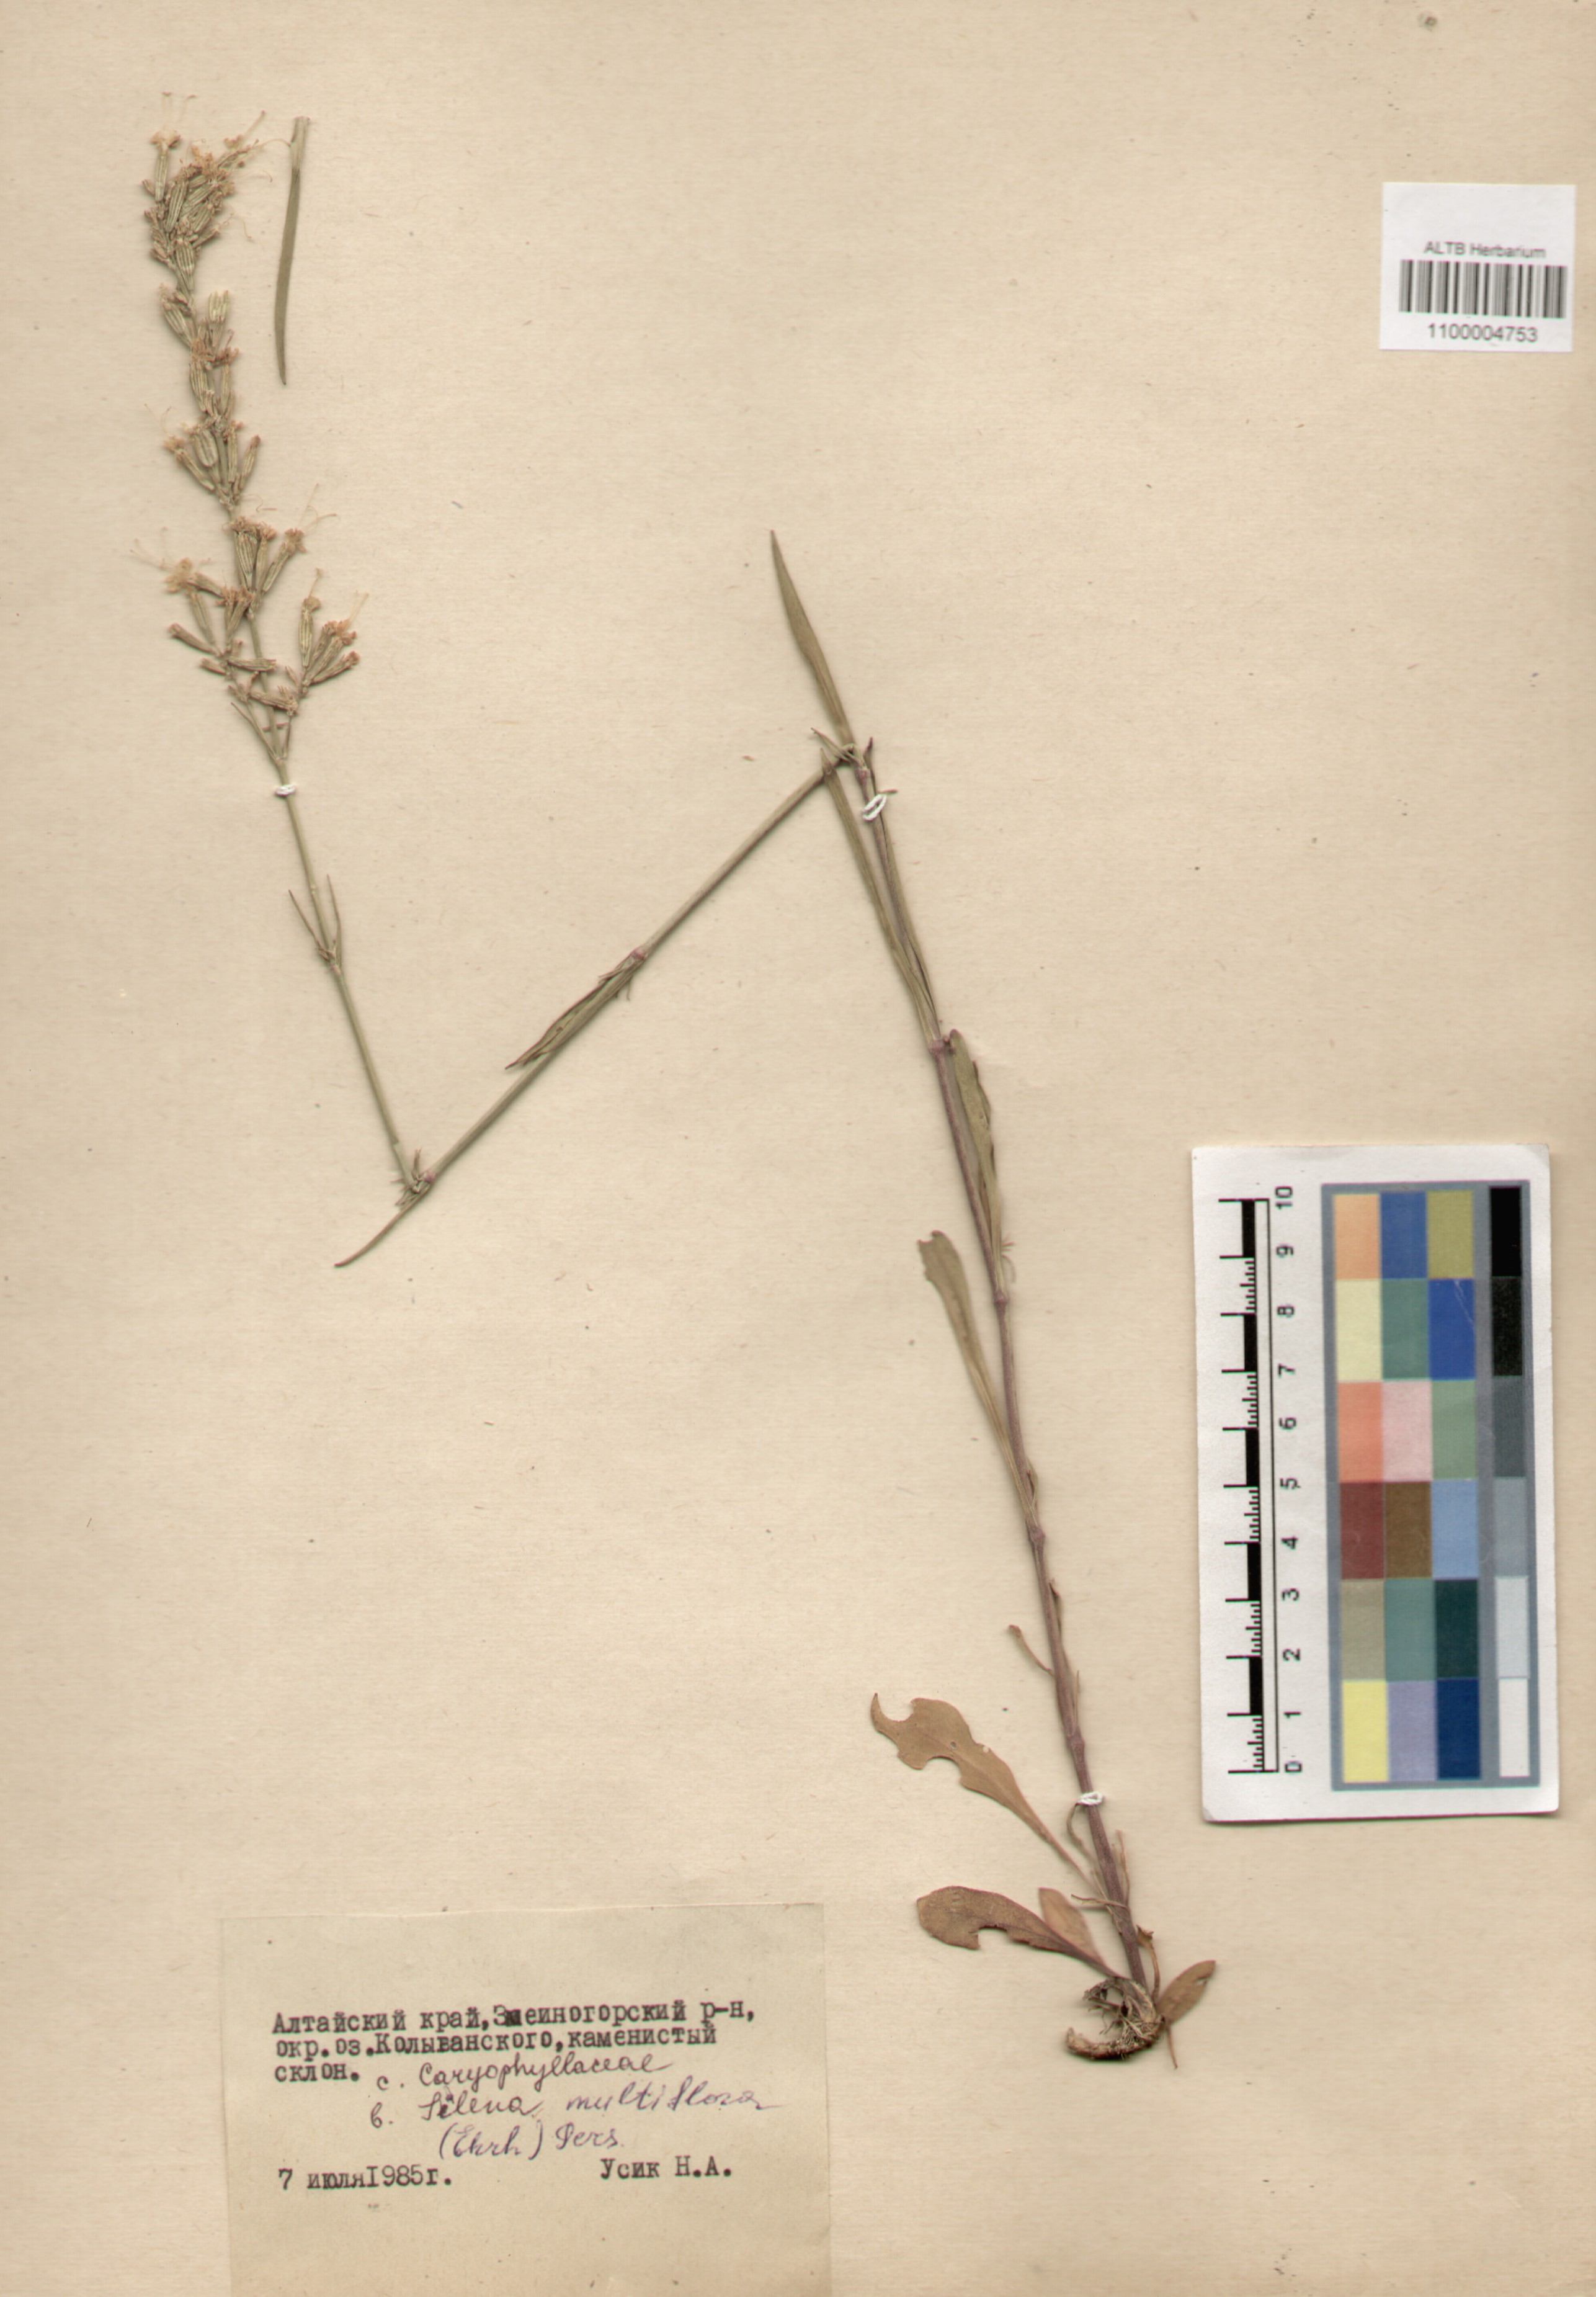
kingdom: Plantae
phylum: Tracheophyta
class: Magnoliopsida
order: Caryophyllales
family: Caryophyllaceae
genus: Silene
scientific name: Silene multiflora
